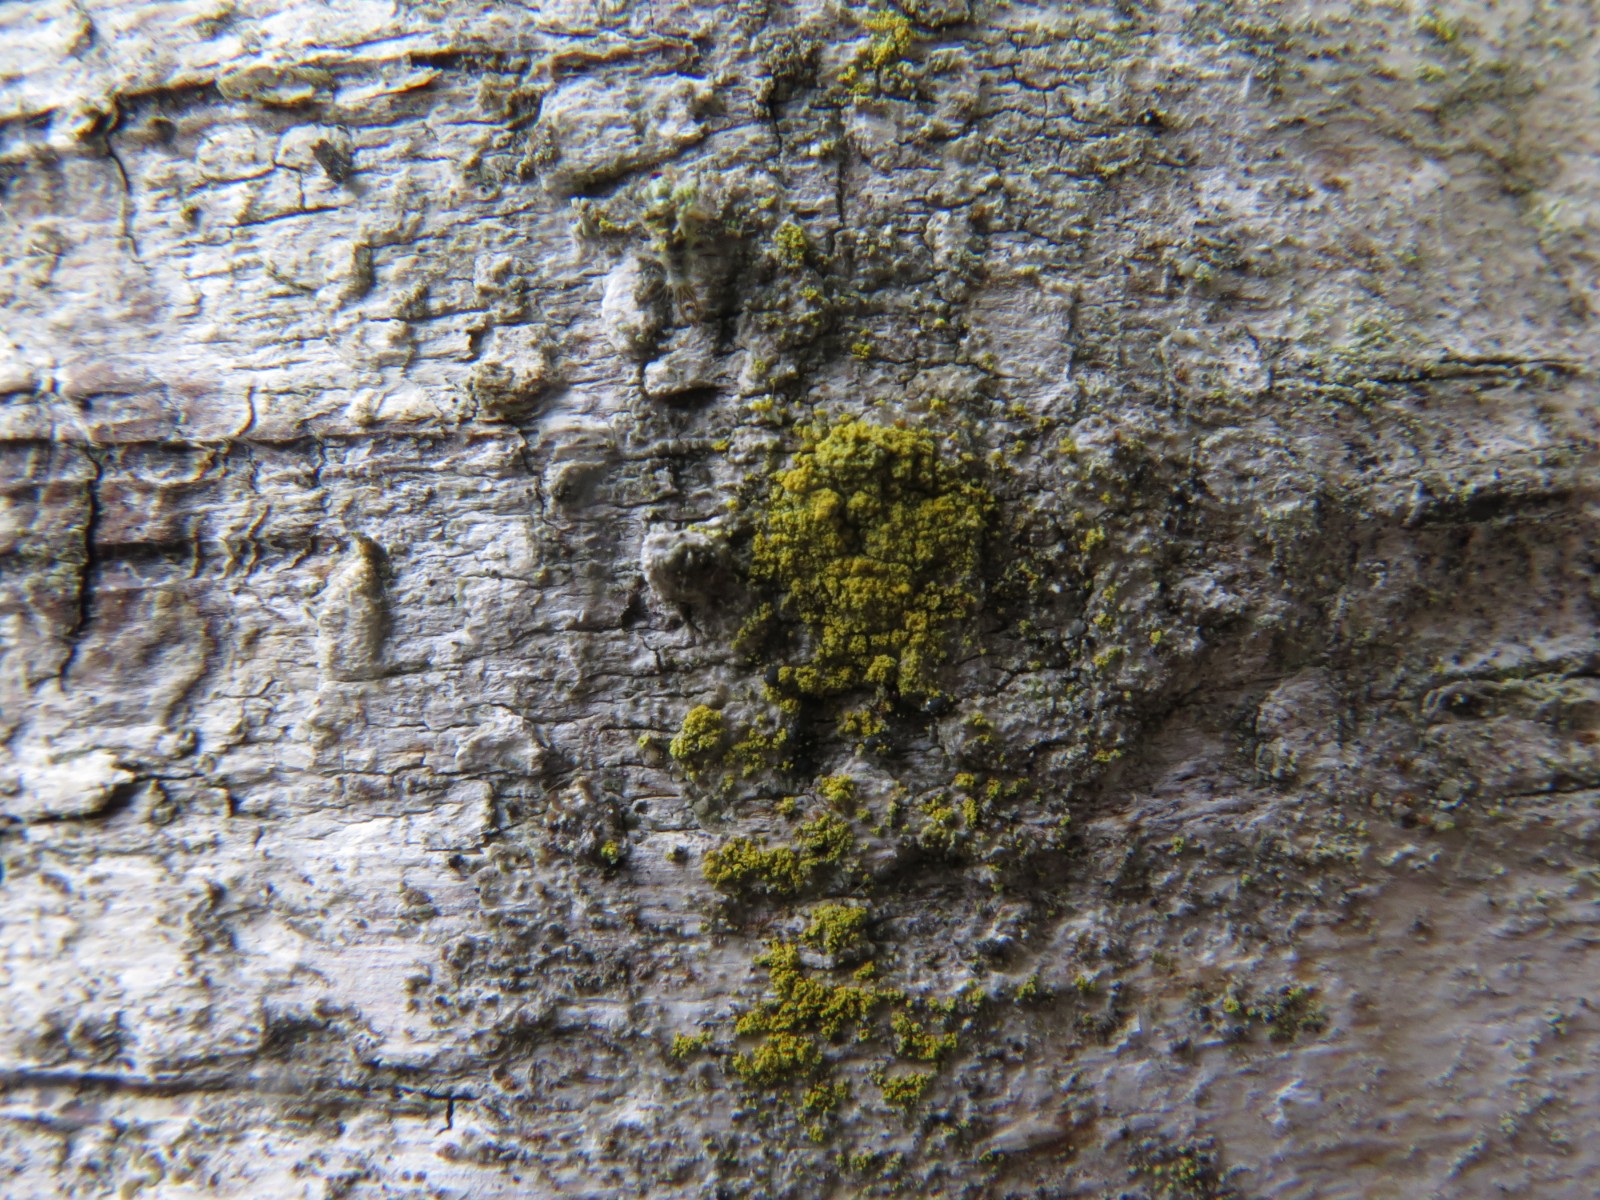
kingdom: Fungi
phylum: Ascomycota
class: Candelariomycetes
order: Candelariales
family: Candelariaceae
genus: Candelaria
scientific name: Candelaria pacifica
